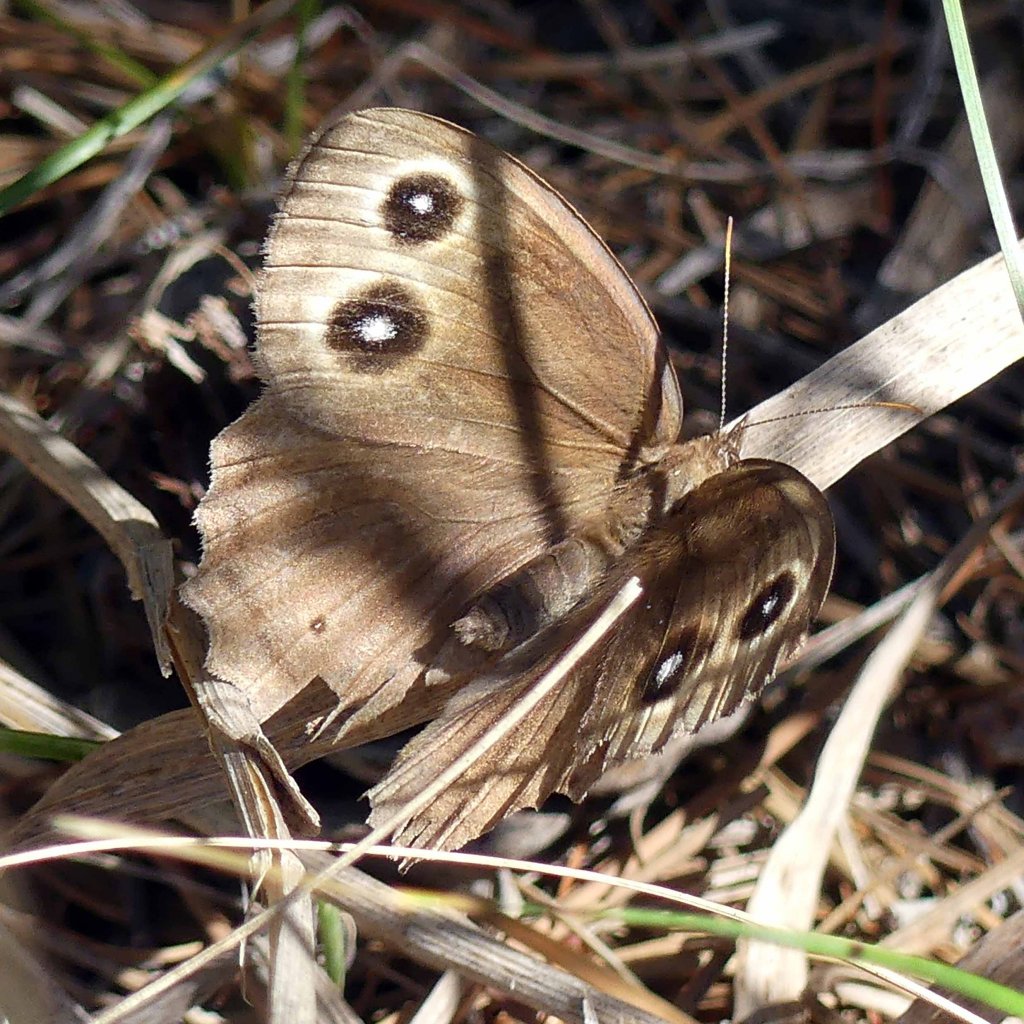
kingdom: Animalia
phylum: Arthropoda
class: Insecta
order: Lepidoptera
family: Nymphalidae
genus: Cercyonis
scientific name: Cercyonis pegala
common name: Common Wood-Nymph
